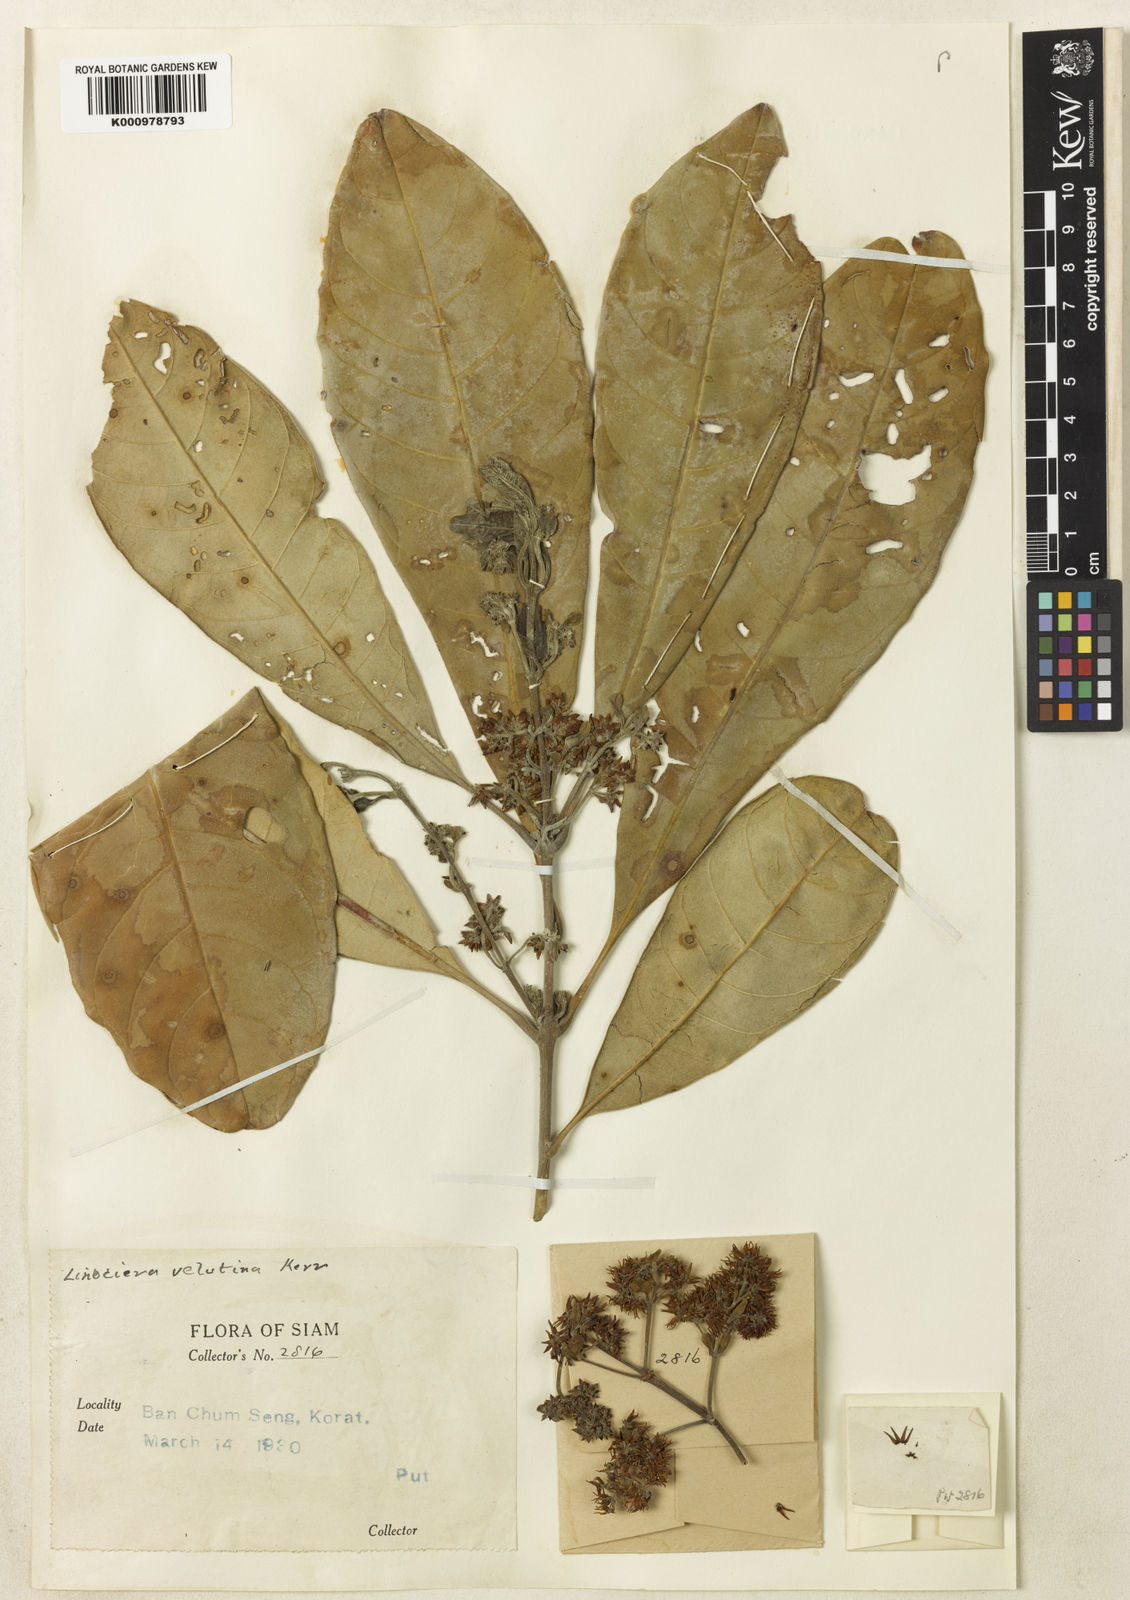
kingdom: Plantae
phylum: Tracheophyta
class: Magnoliopsida
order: Lamiales
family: Oleaceae
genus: Chionanthus
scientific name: Chionanthus velutinus
